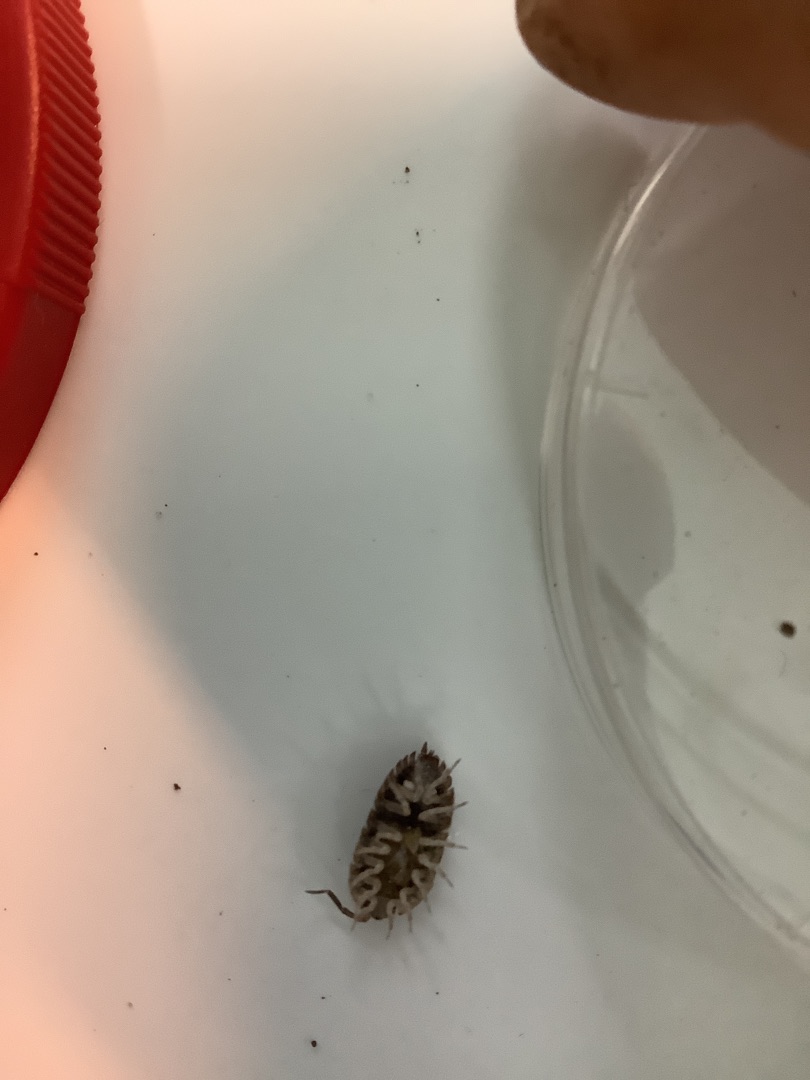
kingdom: Animalia
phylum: Arthropoda
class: Malacostraca
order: Isopoda
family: Oniscidae
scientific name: Oniscidae
